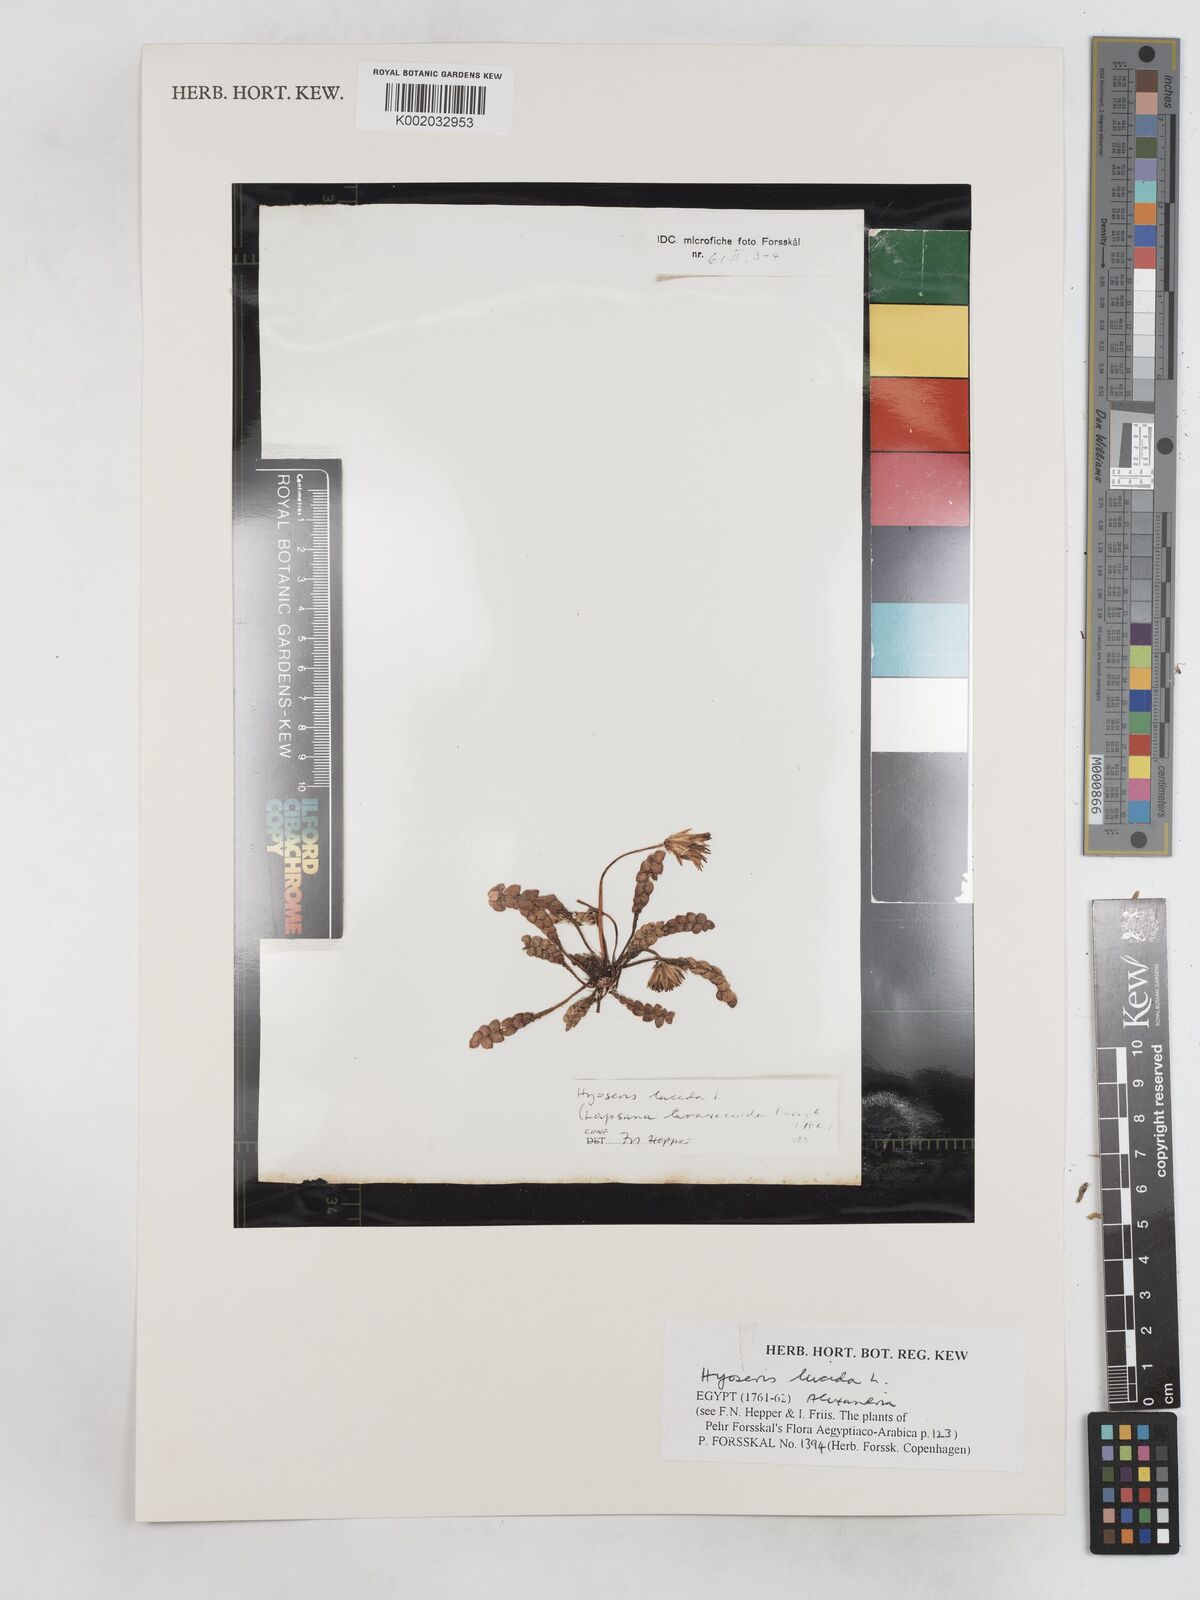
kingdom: Plantae
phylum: Tracheophyta
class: Magnoliopsida
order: Asterales
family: Asteraceae
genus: Hyoseris
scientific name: Hyoseris lucida
